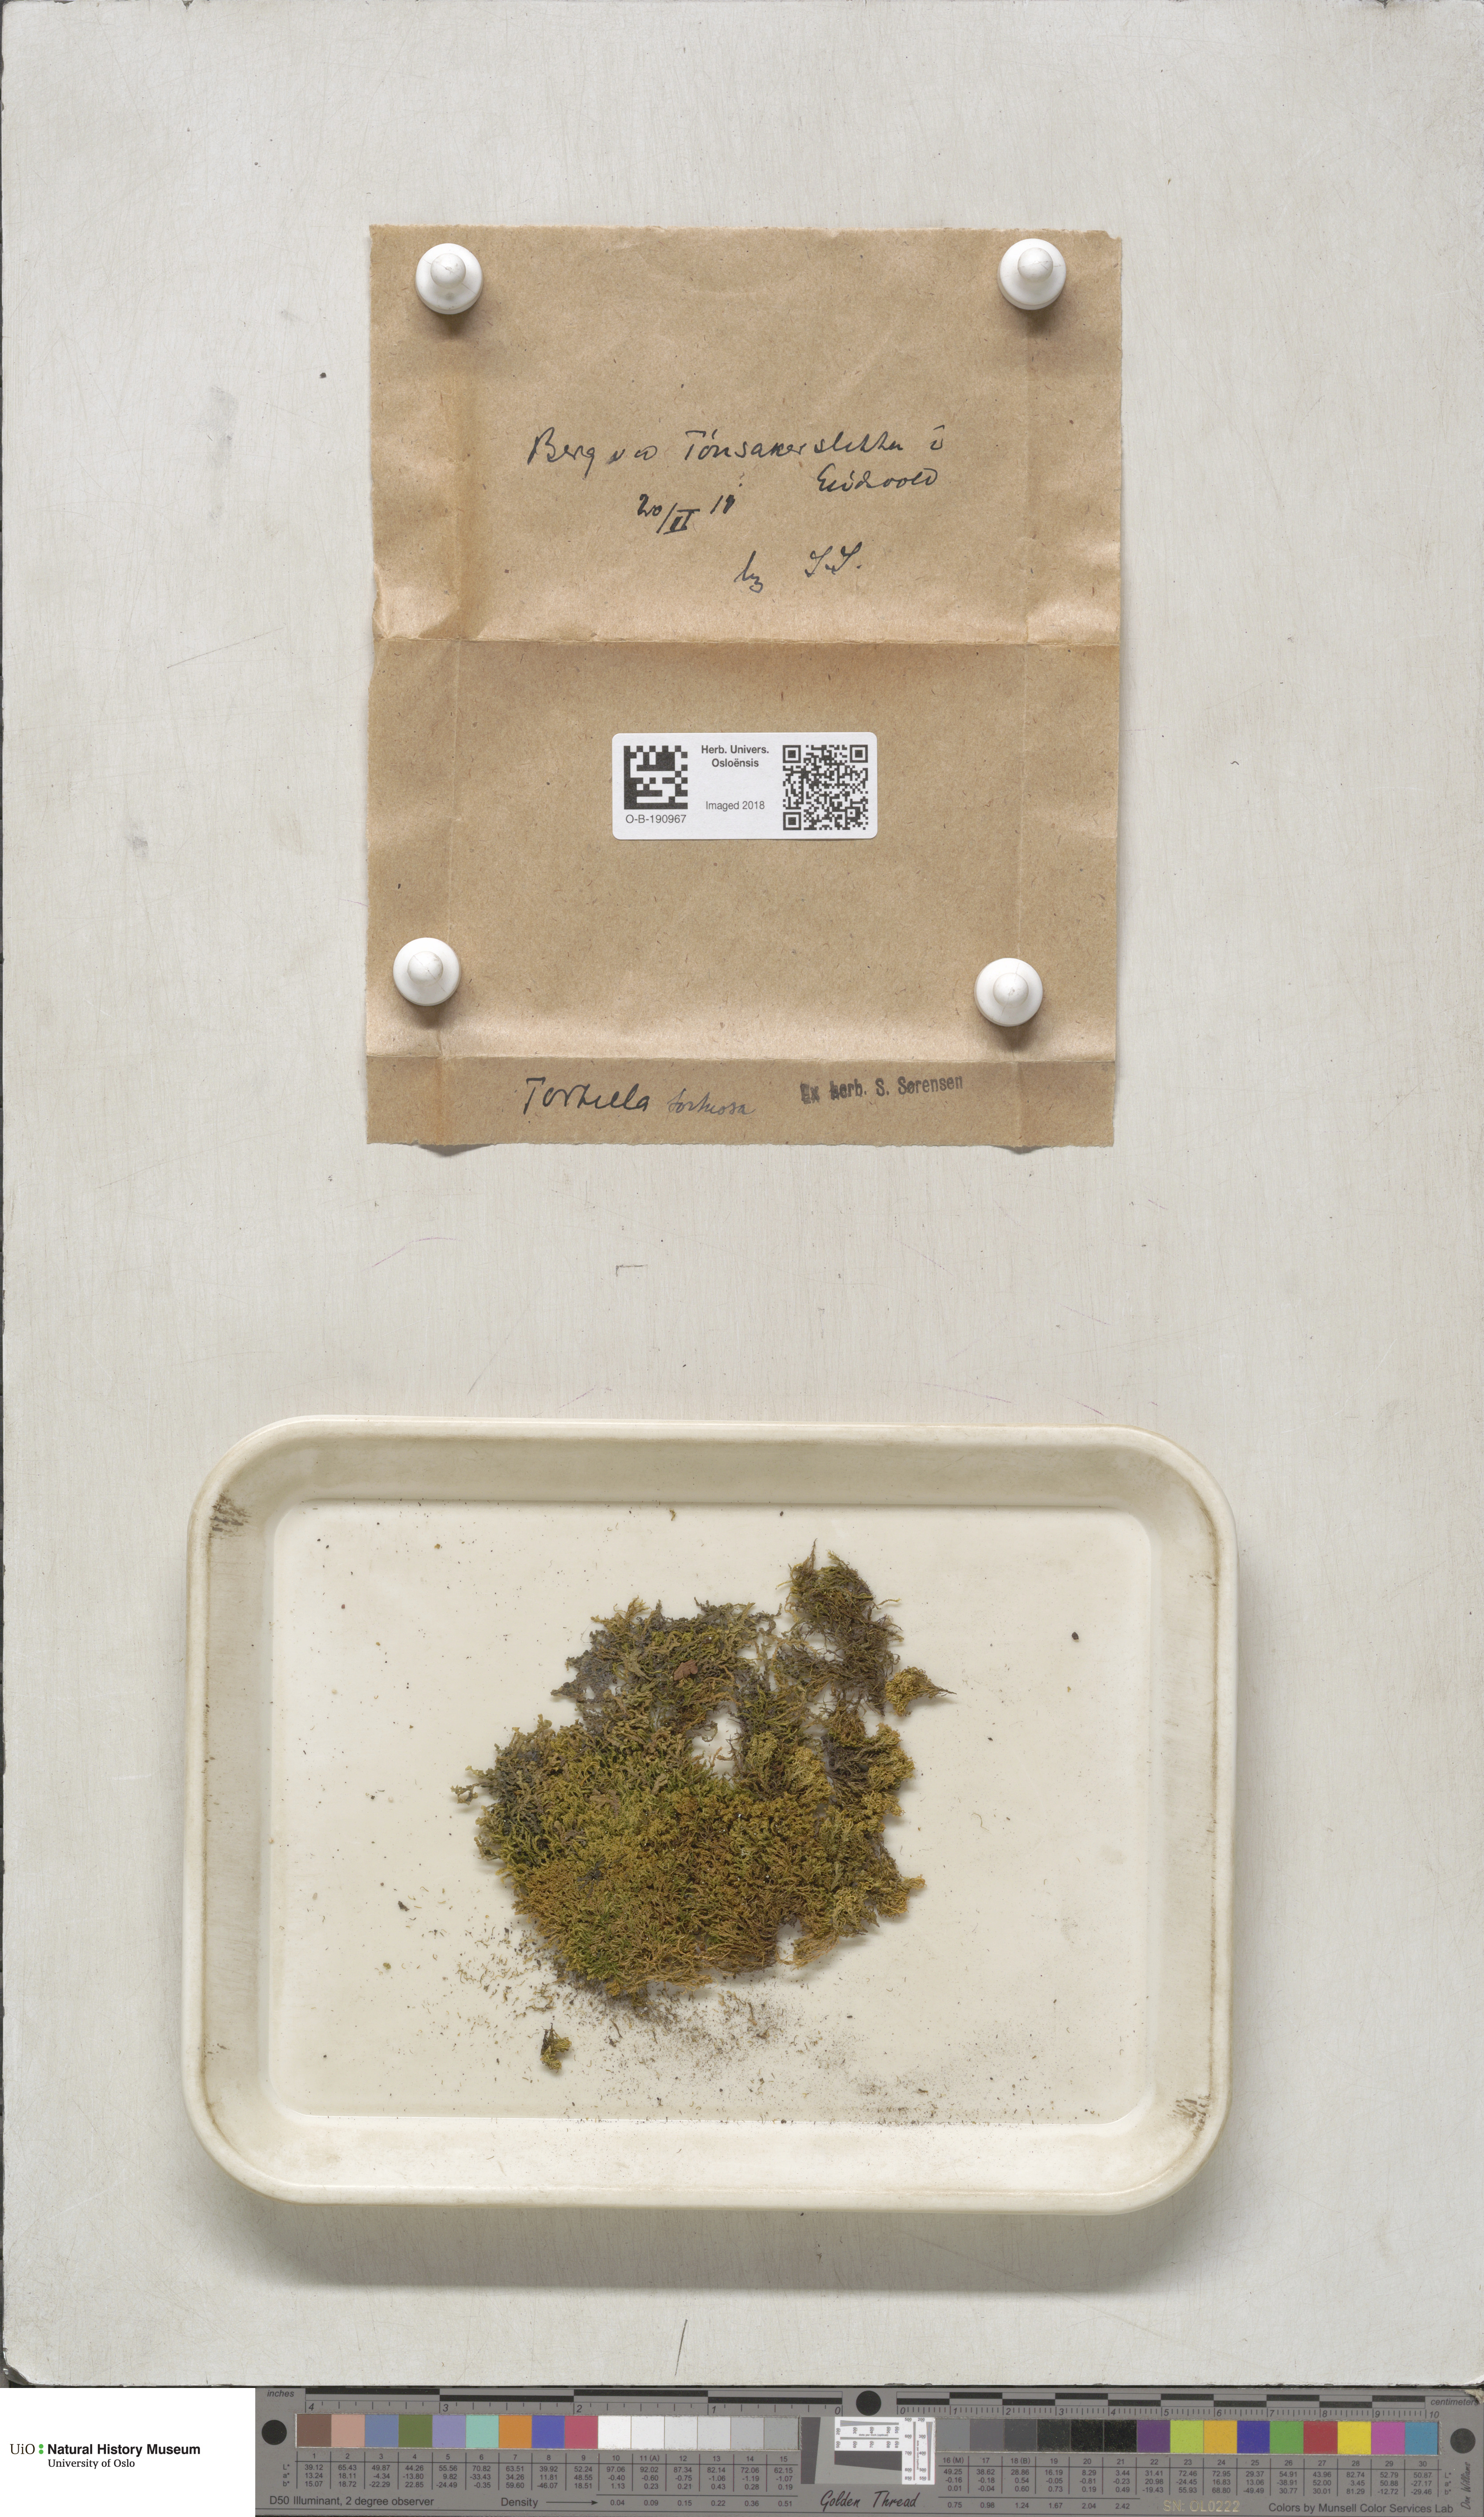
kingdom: Plantae
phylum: Bryophyta
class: Bryopsida
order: Pottiales
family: Pottiaceae
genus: Tortella
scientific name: Tortella tortuosa
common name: Frizzled crisp moss
